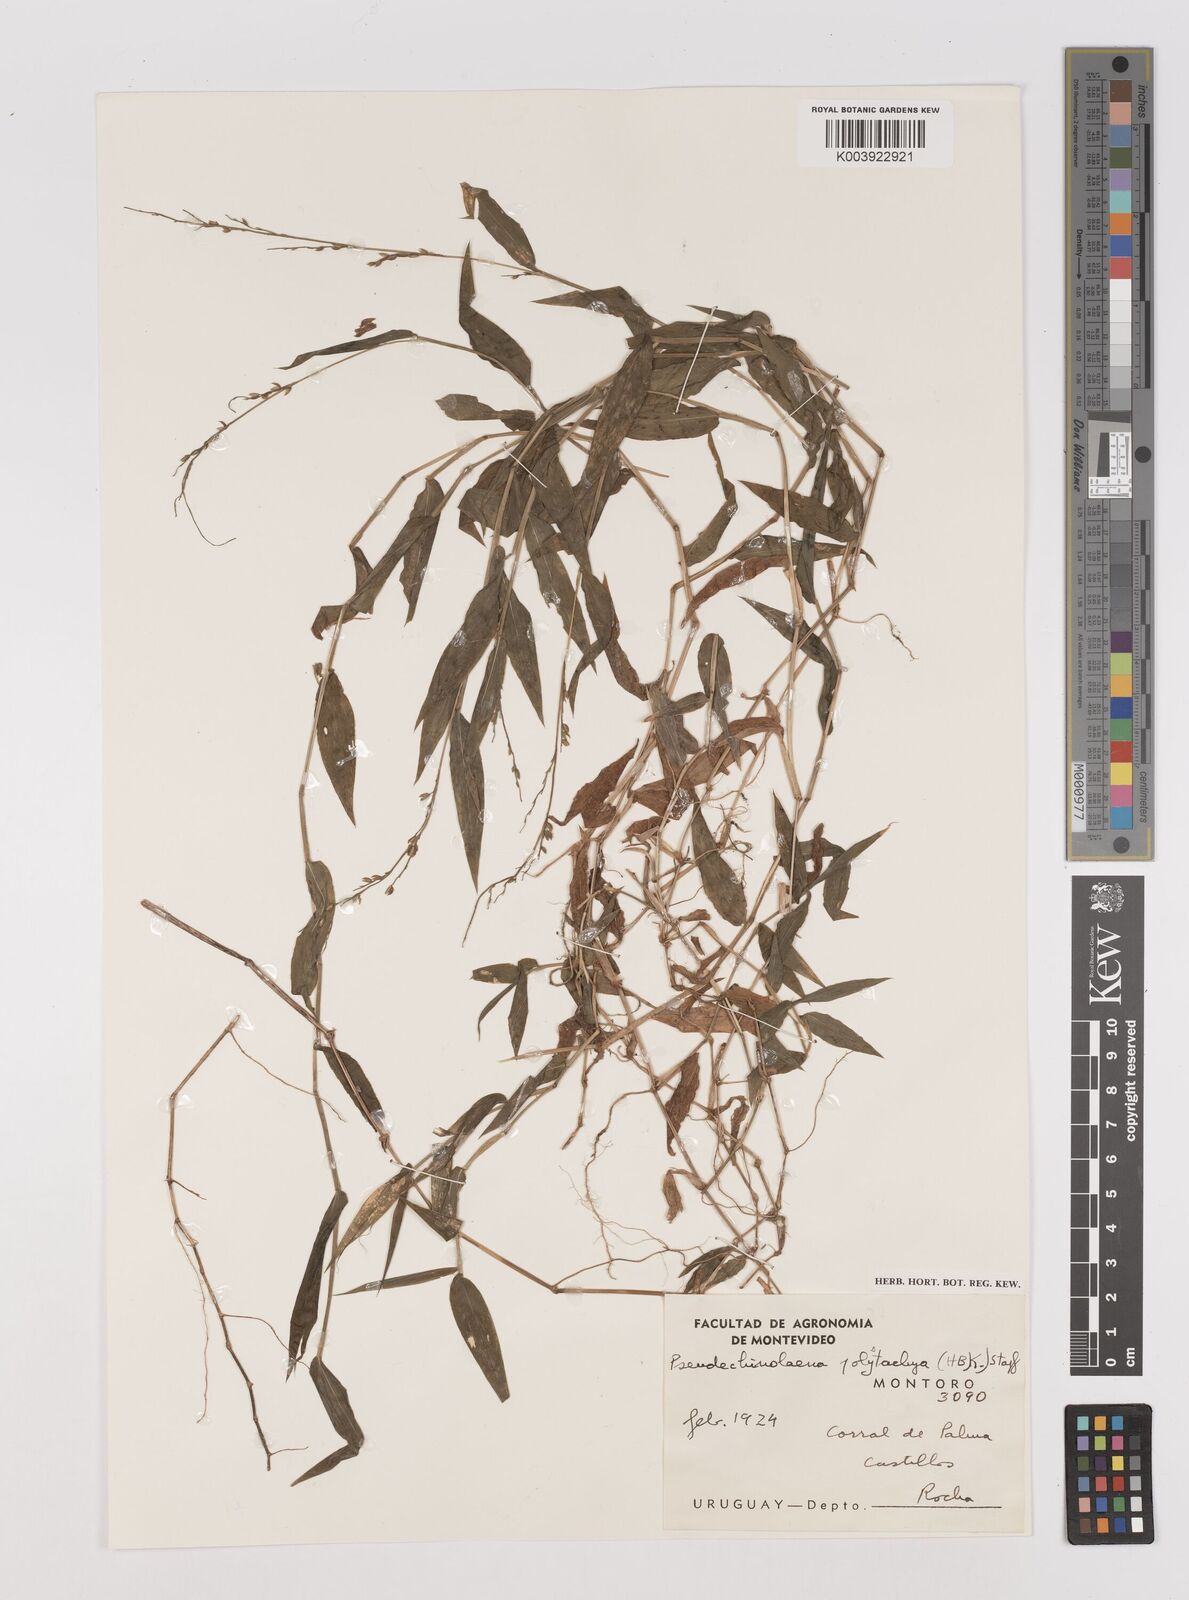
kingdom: Plantae
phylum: Tracheophyta
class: Liliopsida
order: Poales
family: Poaceae
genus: Pseudechinolaena
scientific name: Pseudechinolaena polystachya
